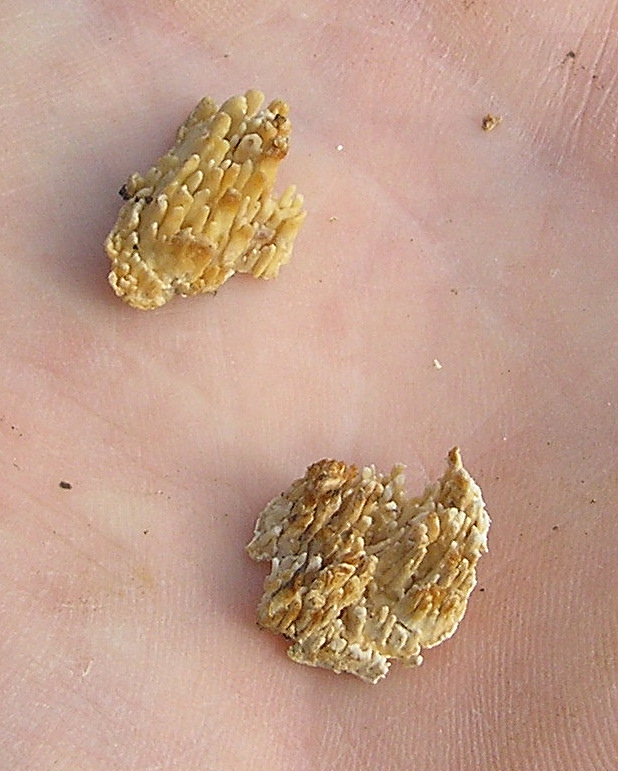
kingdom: Fungi
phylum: Basidiomycota
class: Agaricomycetes
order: Hymenochaetales
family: Schizoporaceae
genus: Xylodon
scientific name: Xylodon radula
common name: grovtandet kalkskind
